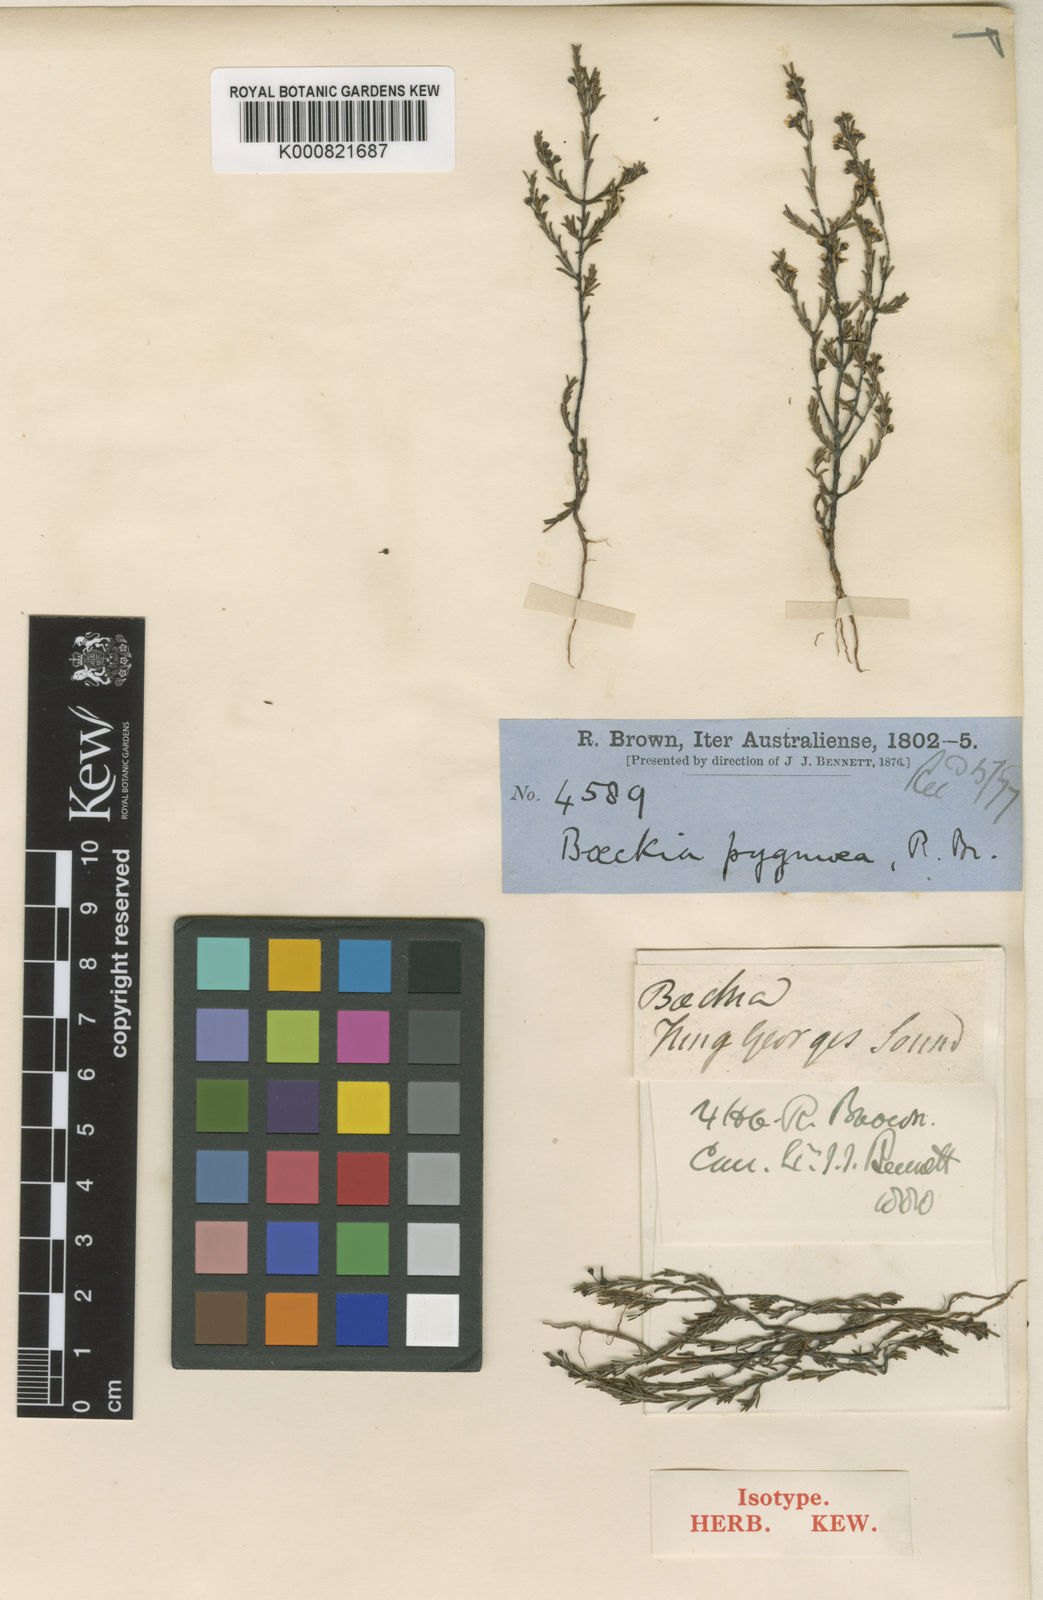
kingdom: Plantae
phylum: Tracheophyta
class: Magnoliopsida
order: Myrtales
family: Myrtaceae
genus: Austrobaeckea
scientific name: Austrobaeckea pygmaea
